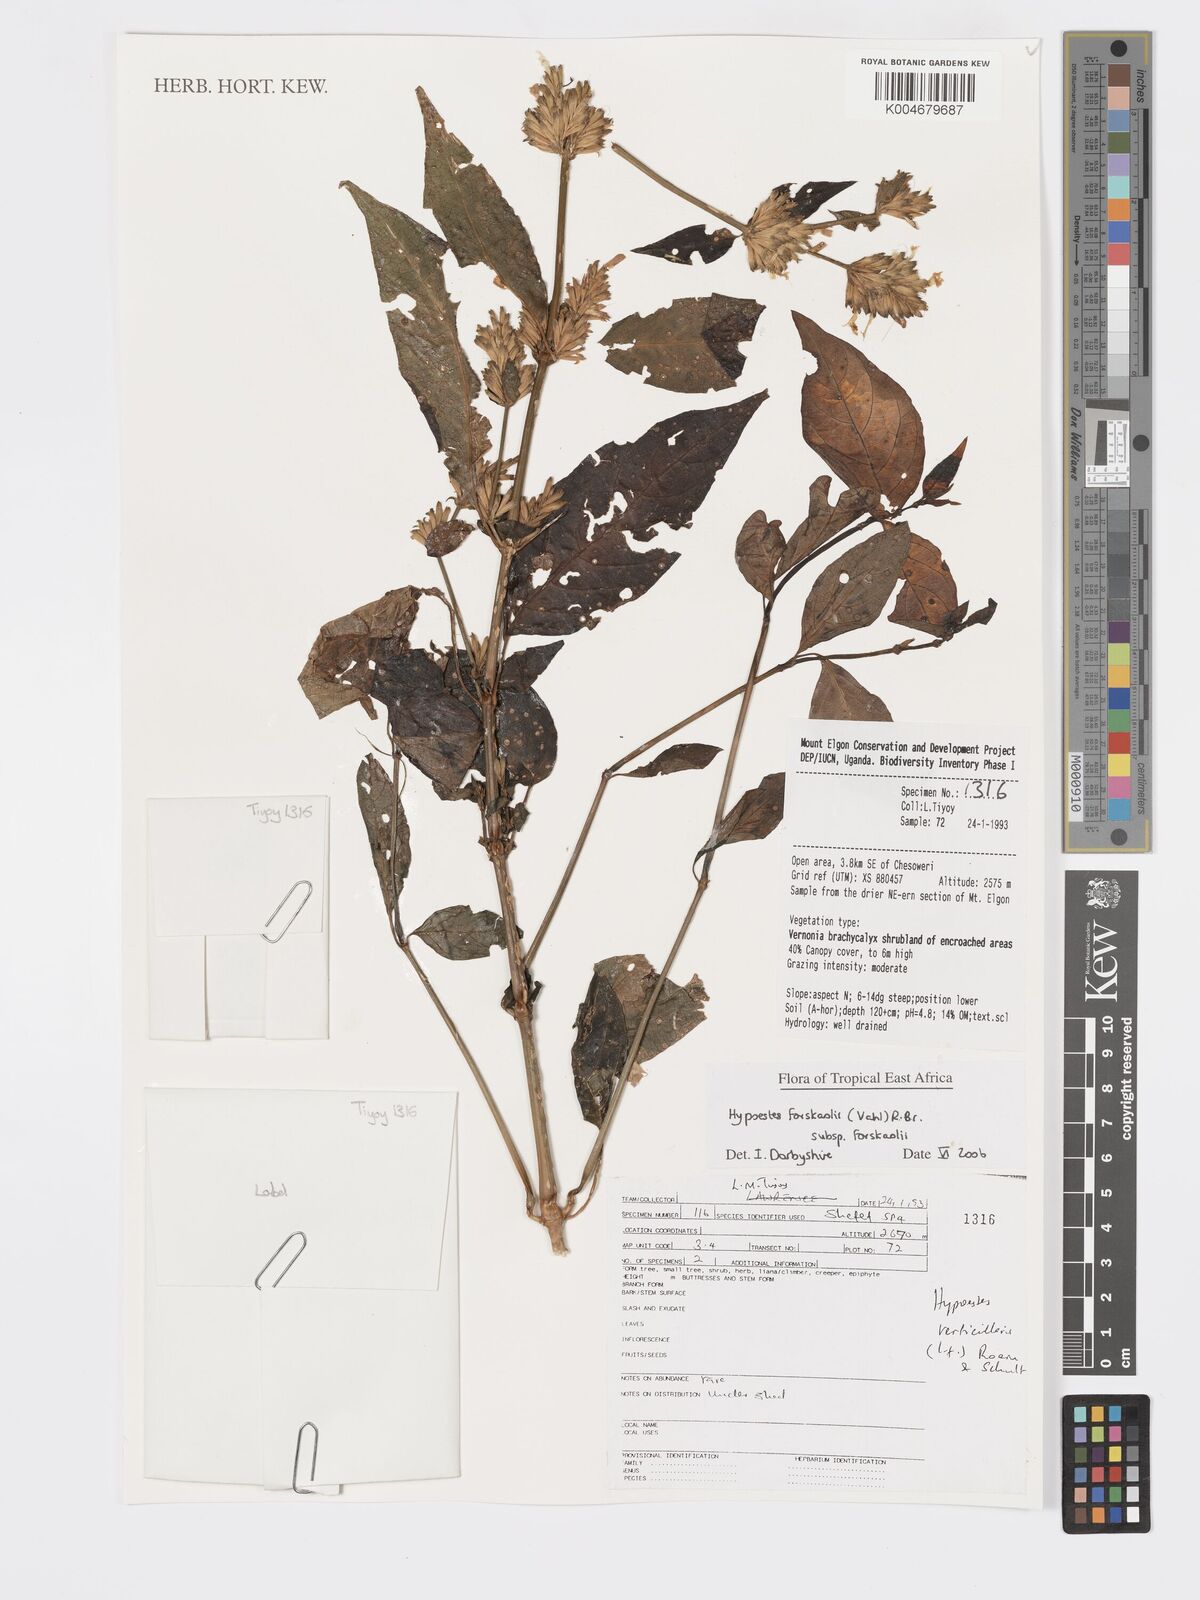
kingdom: Plantae
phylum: Tracheophyta
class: Magnoliopsida
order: Lamiales
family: Acanthaceae
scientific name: Acanthaceae
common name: Acanthaceae
